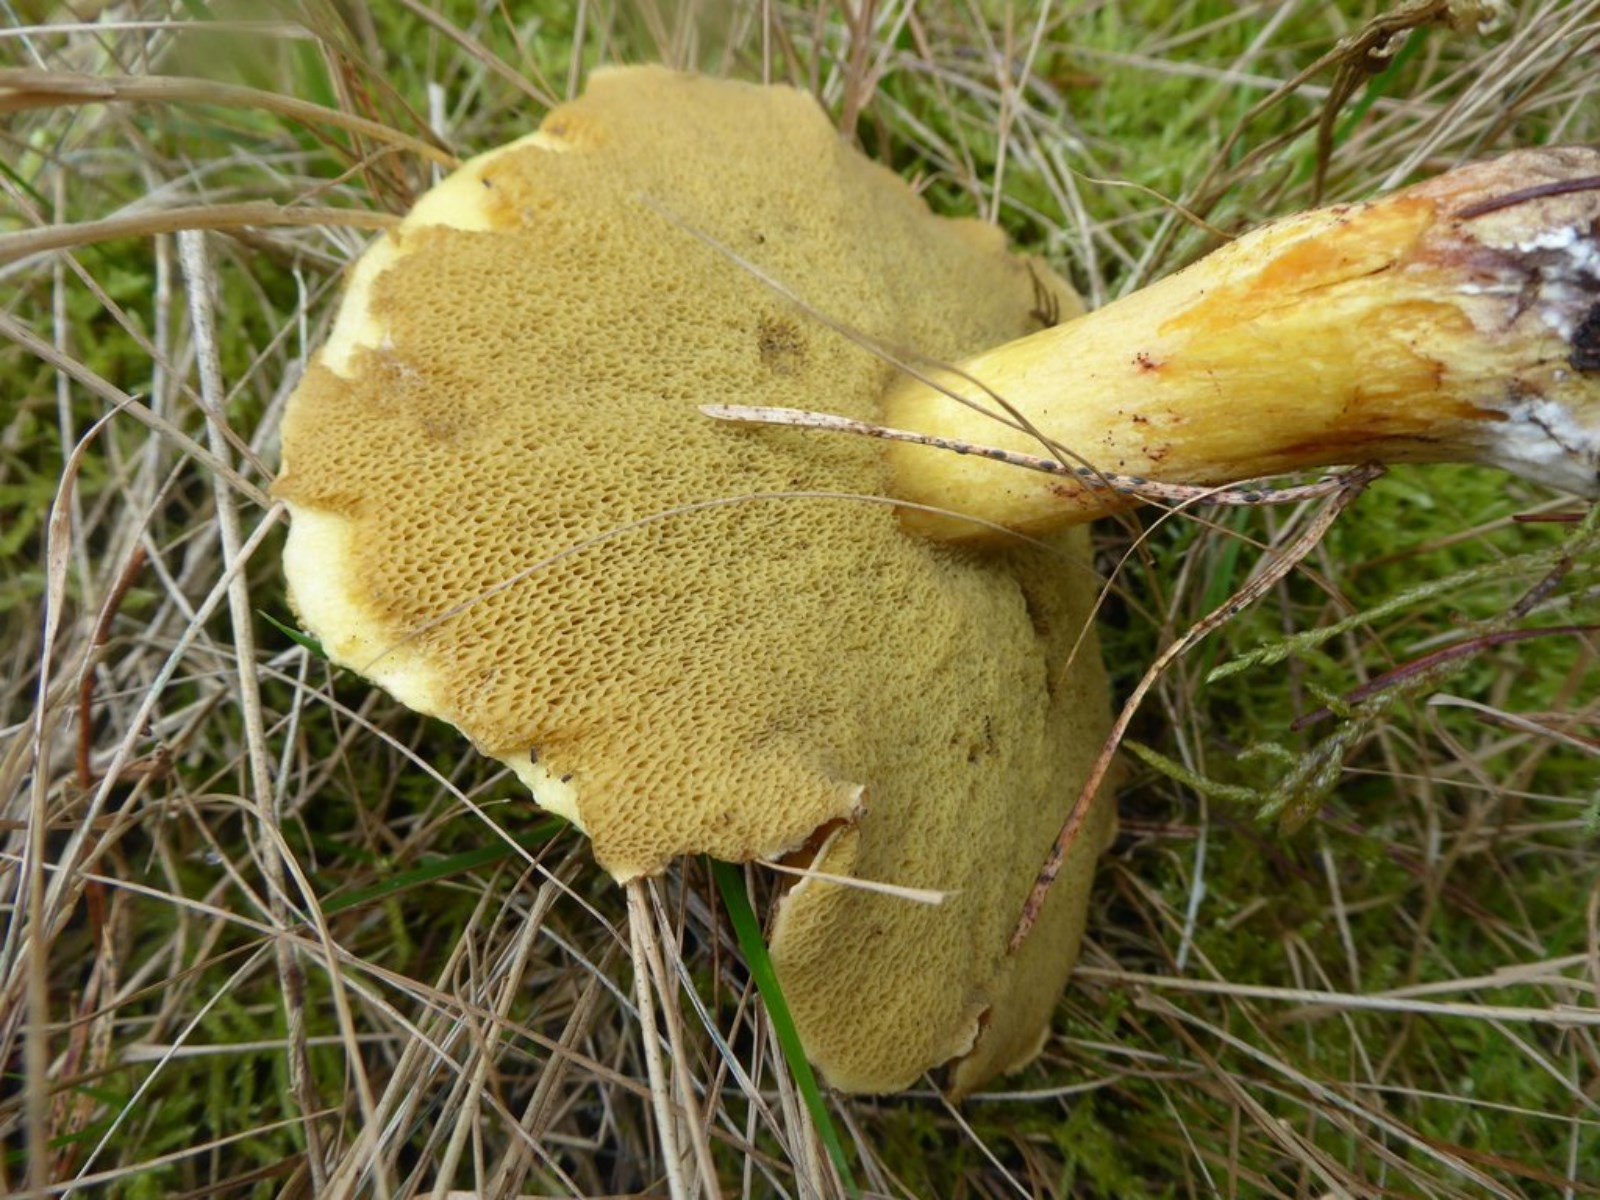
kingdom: Fungi
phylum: Basidiomycota
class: Agaricomycetes
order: Boletales
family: Suillaceae
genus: Suillus
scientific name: Suillus variegatus
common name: broget slimrørhat
